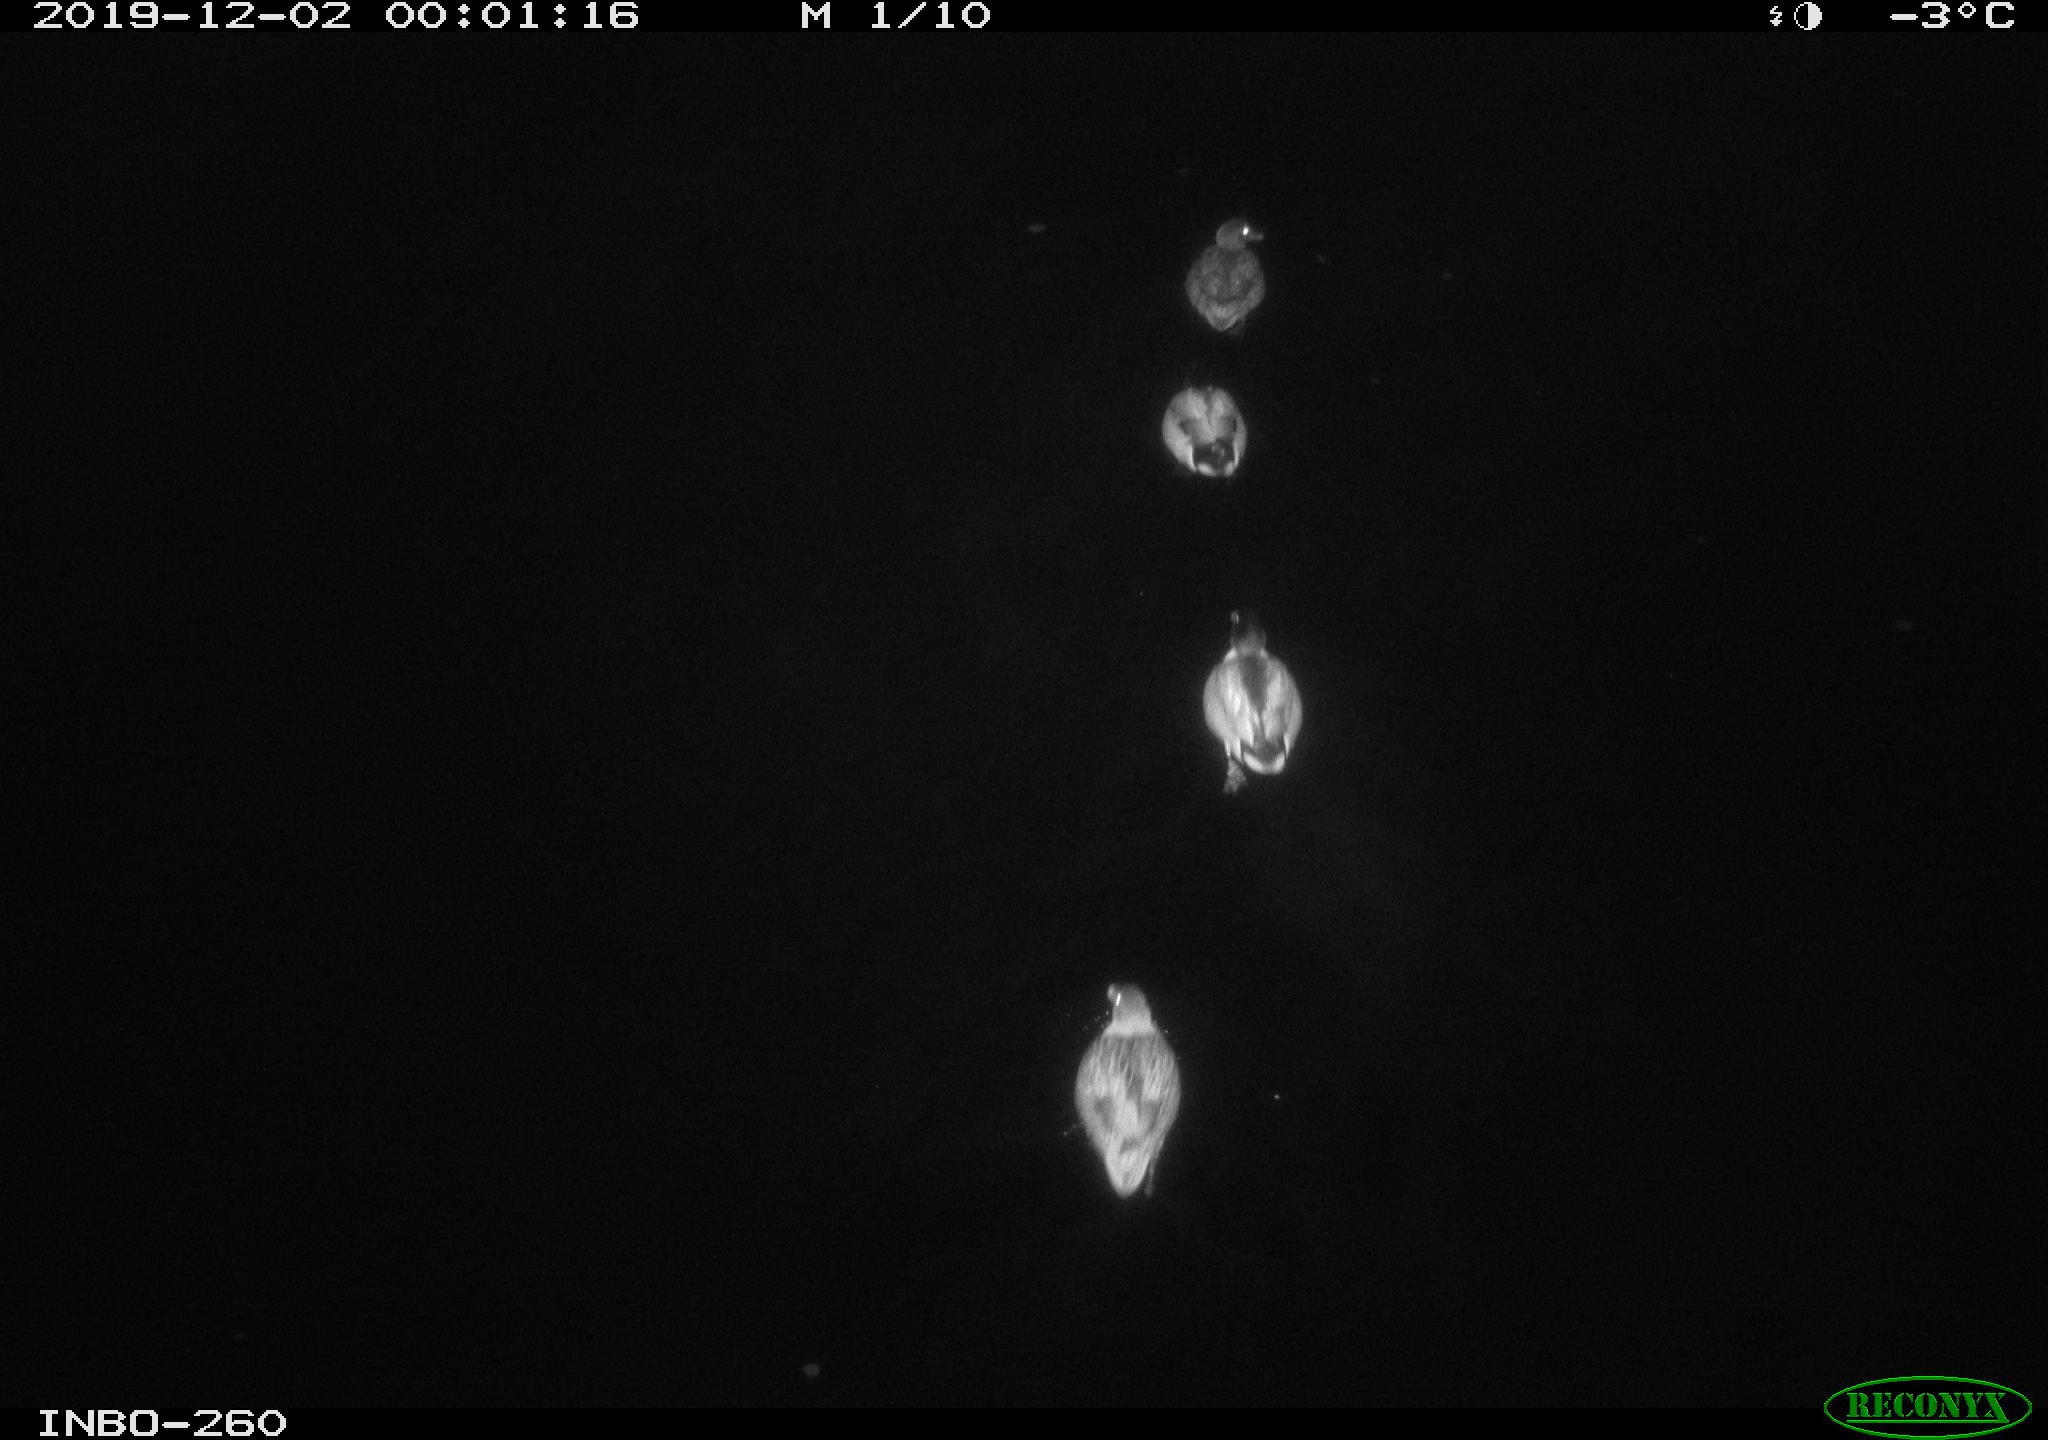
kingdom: Animalia
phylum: Chordata
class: Aves
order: Anseriformes
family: Anatidae
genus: Anas
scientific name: Anas platyrhynchos
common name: Mallard
